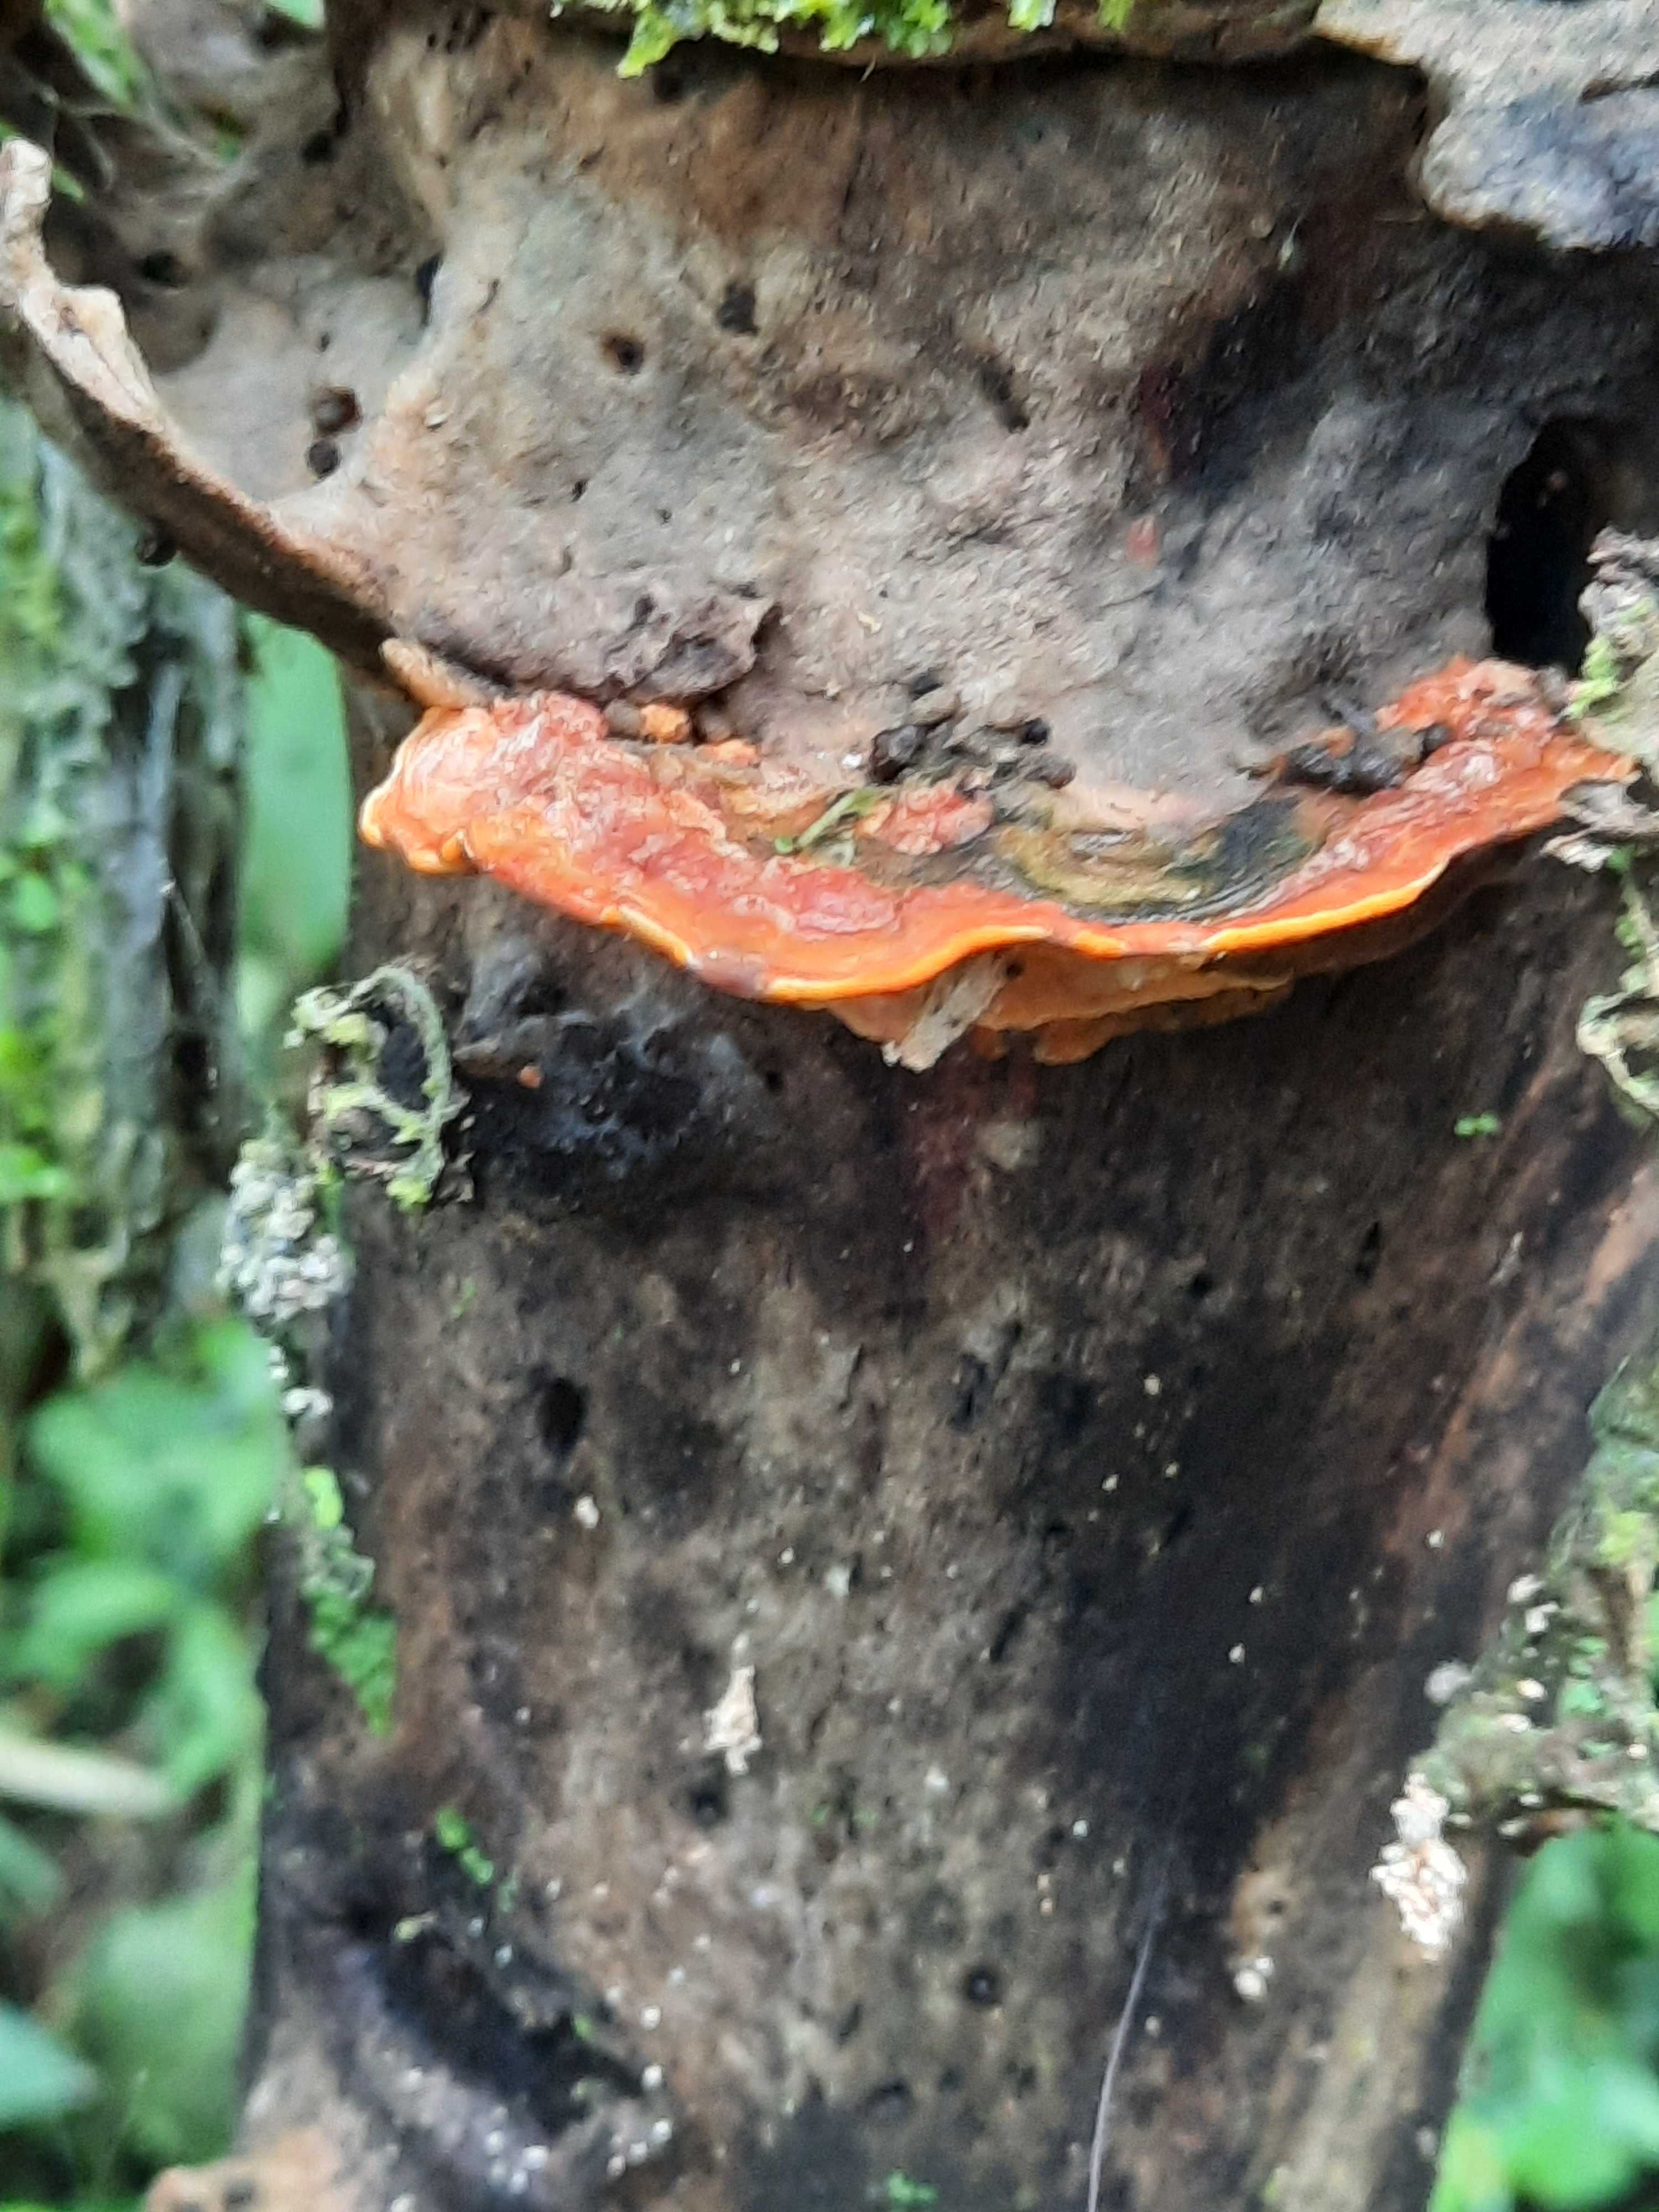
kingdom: Fungi
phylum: Basidiomycota
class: Agaricomycetes
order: Polyporales
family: Meripilaceae
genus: Rigidoporus
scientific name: Rigidoporus
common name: trylleporesvamp
